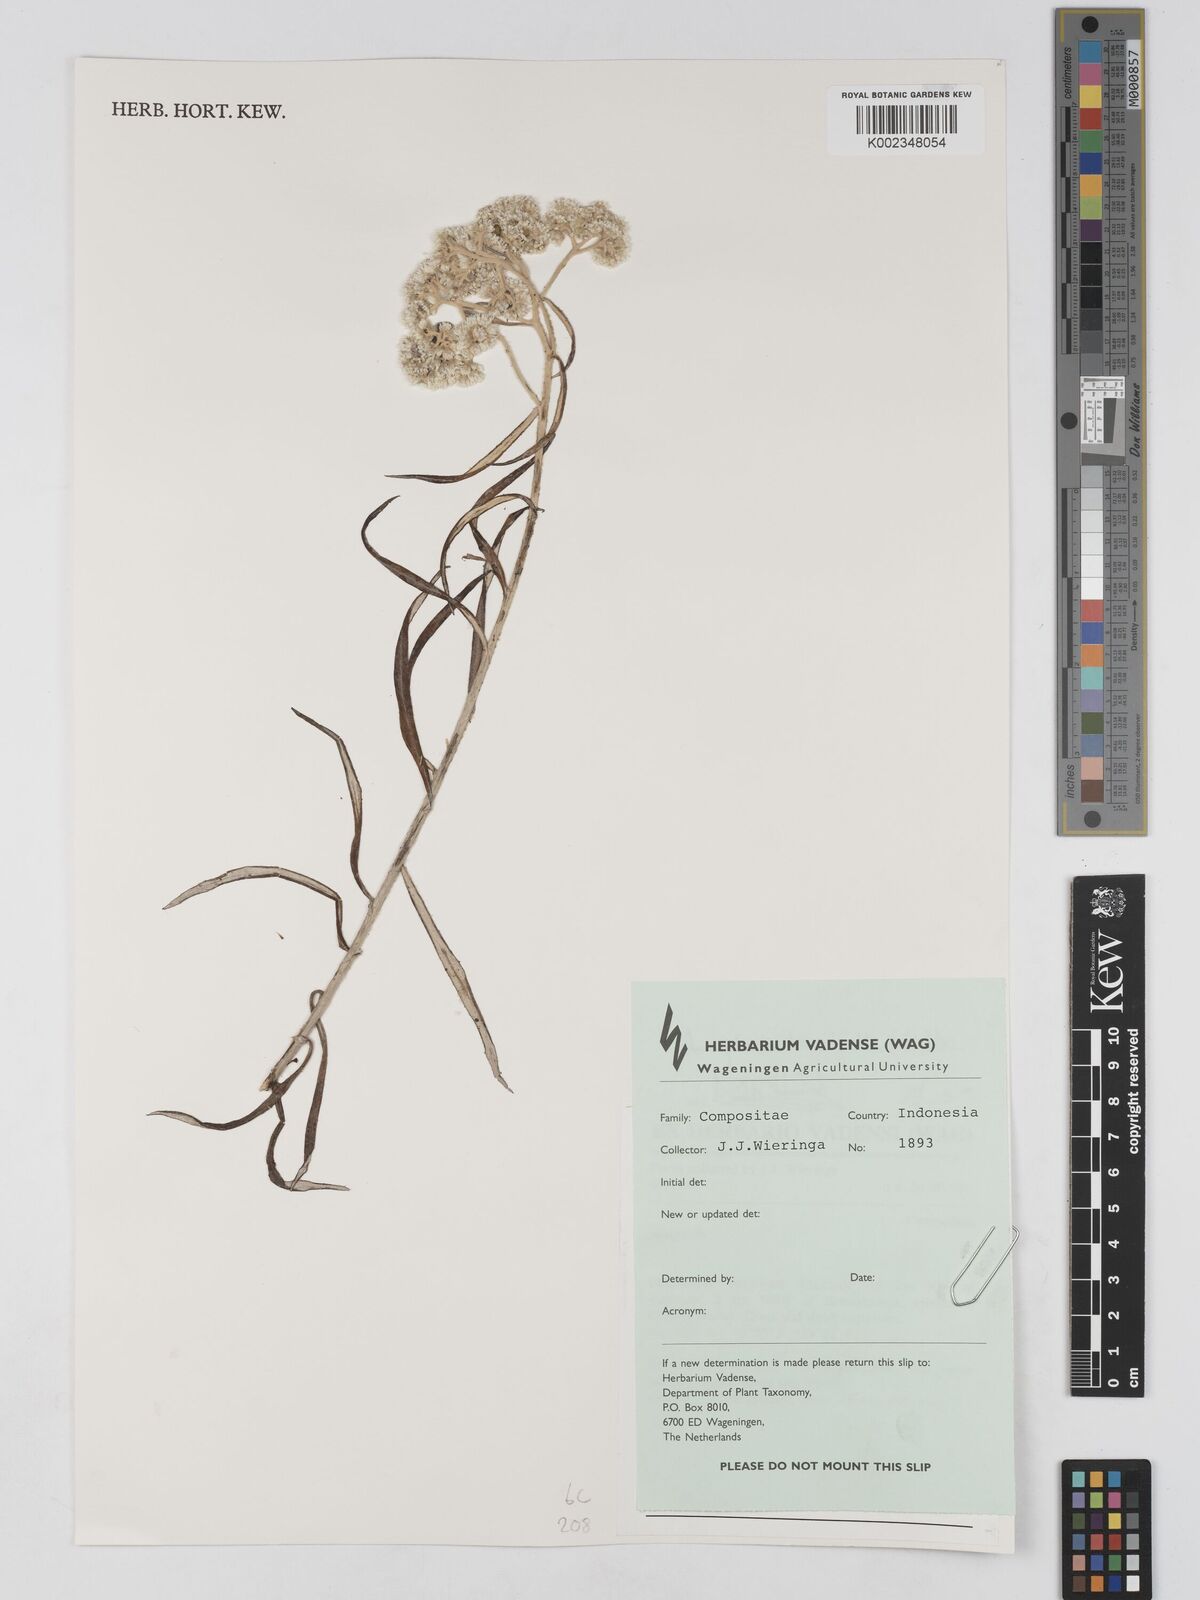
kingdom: Plantae
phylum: Tracheophyta
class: Magnoliopsida
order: Asterales
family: Asteraceae
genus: Anaphalis
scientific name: Anaphalis longifolia
